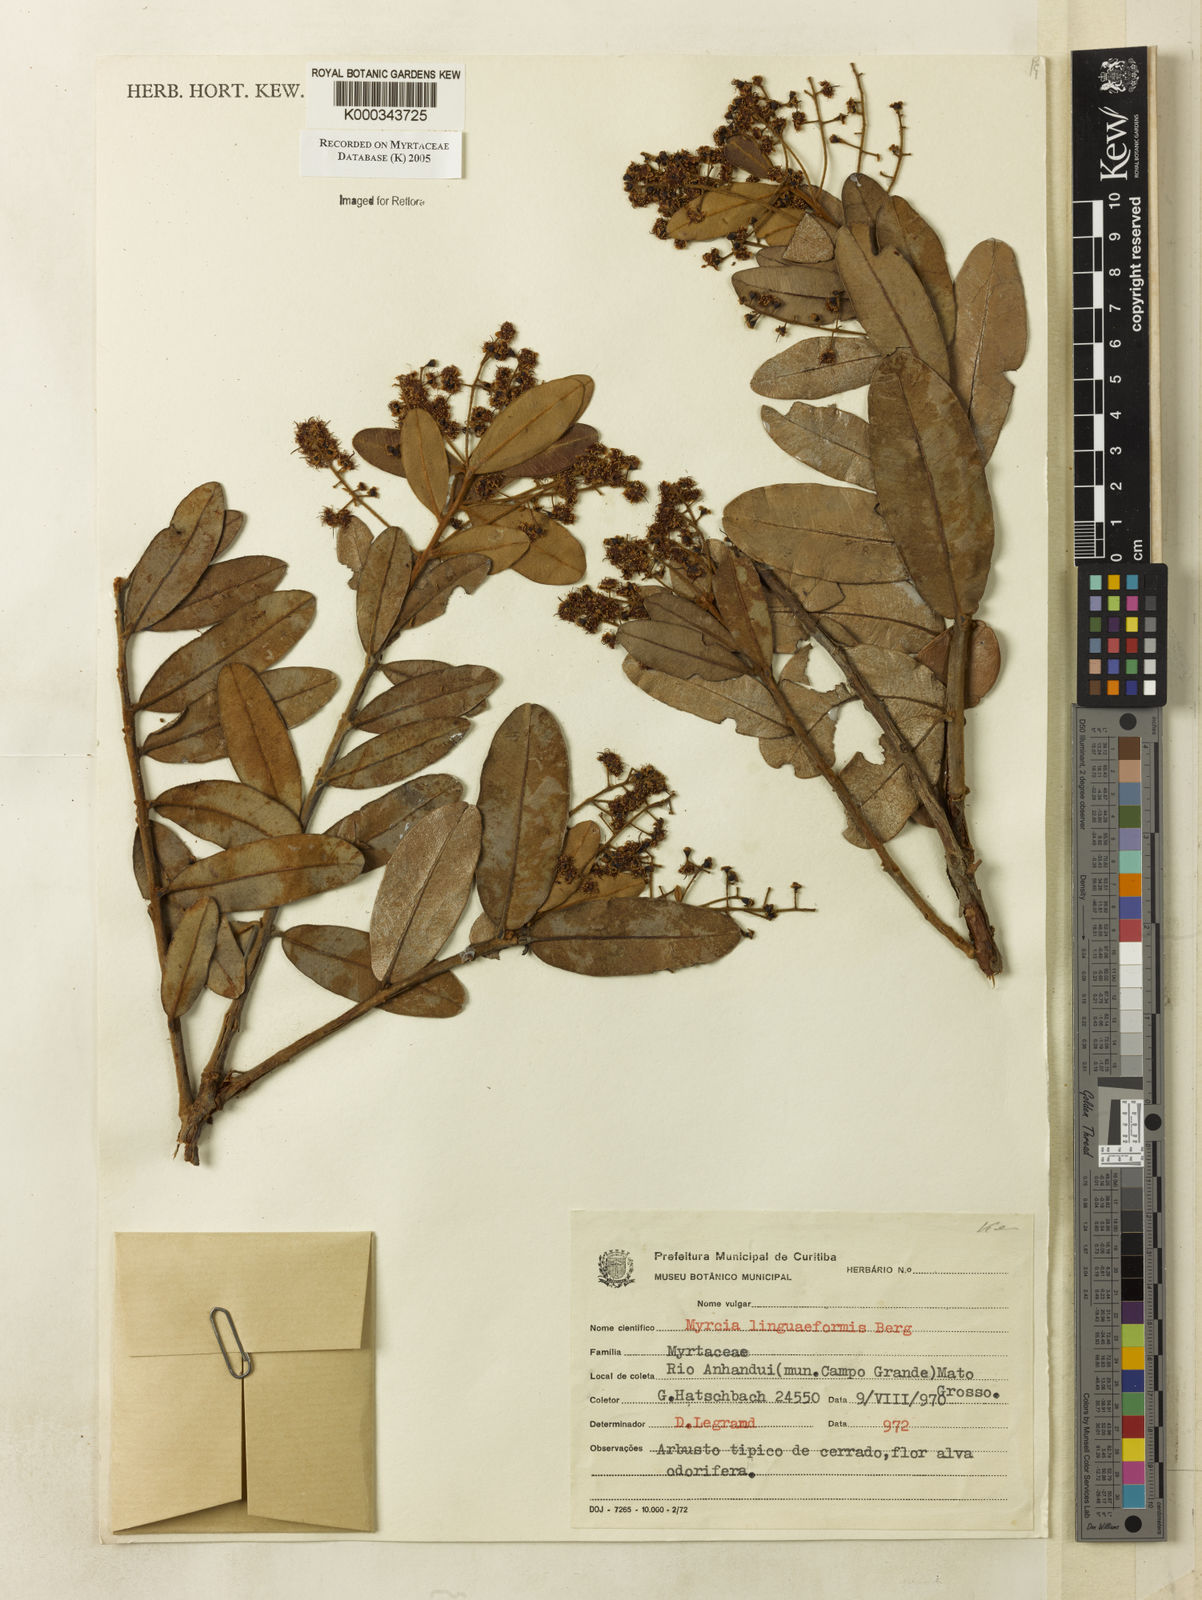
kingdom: Plantae
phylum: Tracheophyta
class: Magnoliopsida
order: Myrtales
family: Myrtaceae
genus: Myrcia
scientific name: Myrcia vestita
